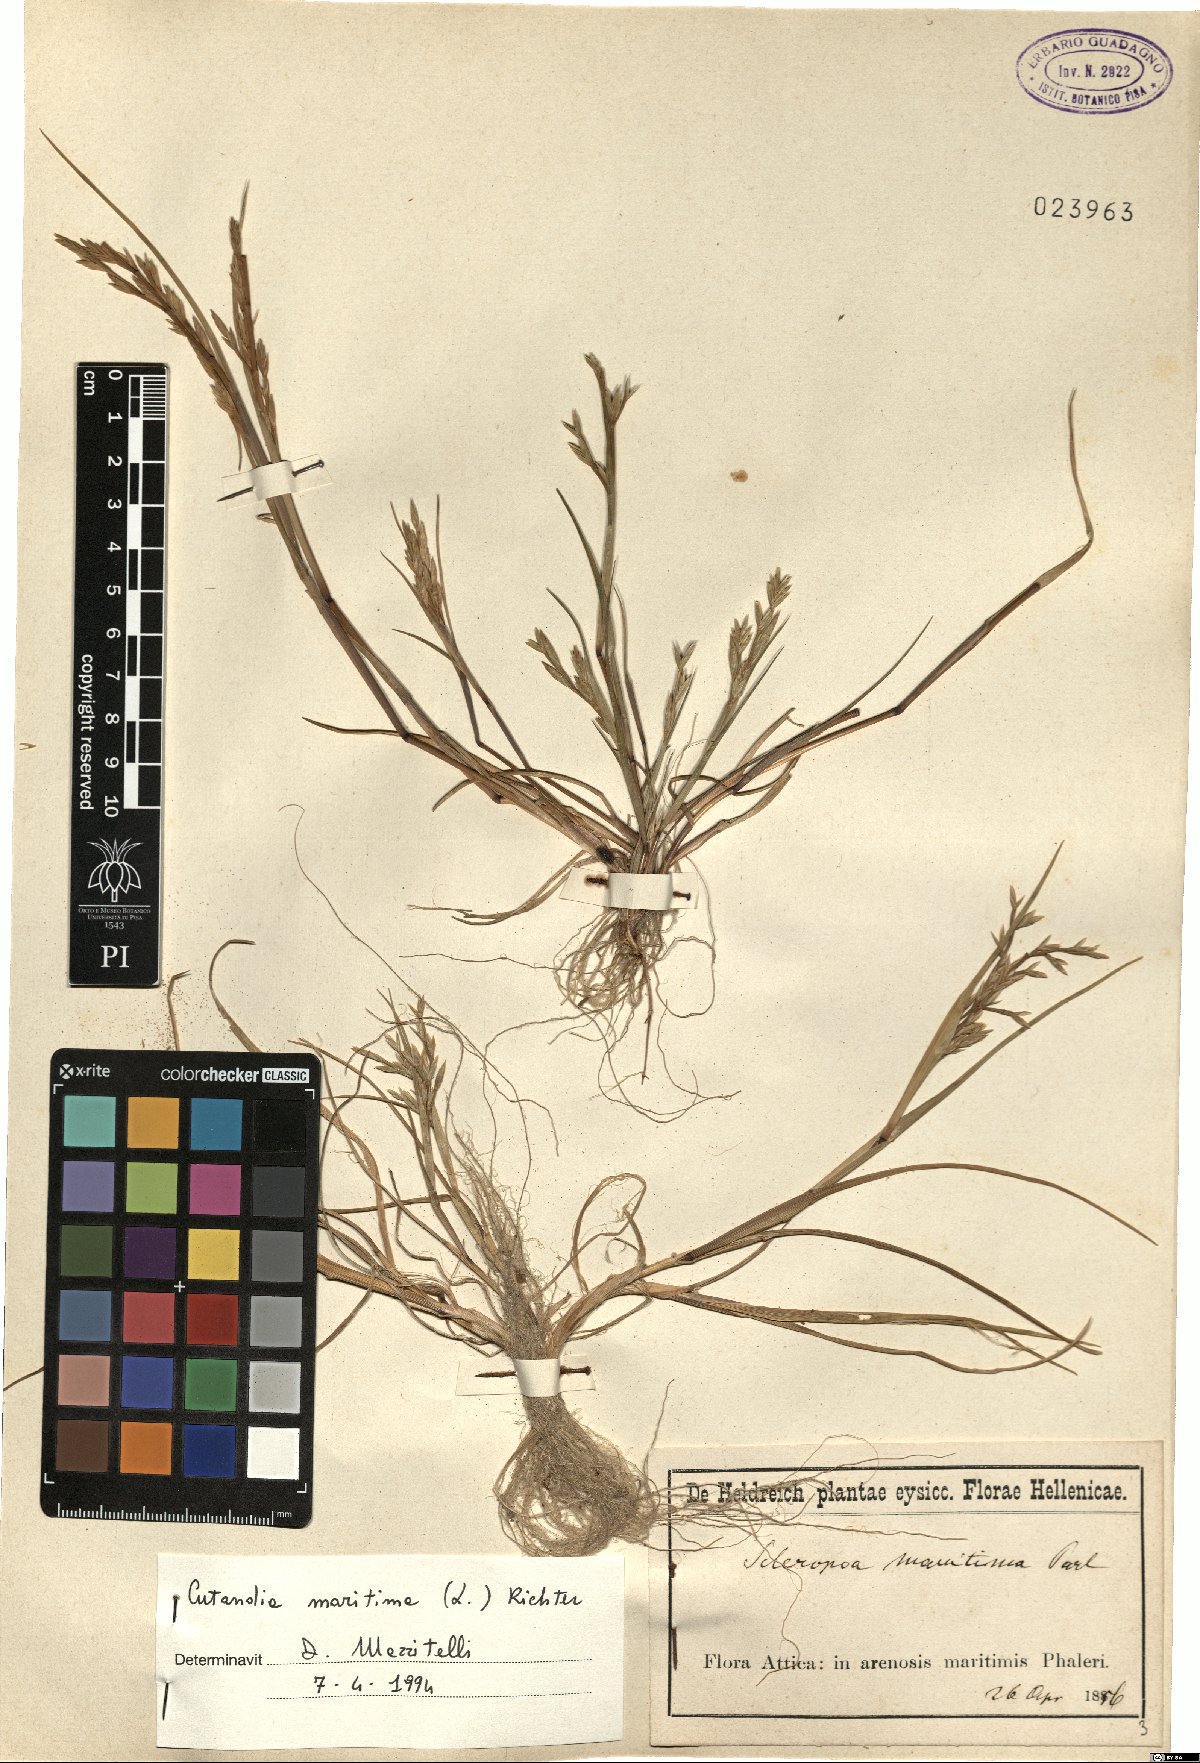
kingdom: Plantae
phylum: Tracheophyta
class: Liliopsida
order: Poales
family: Poaceae
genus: Cutandia
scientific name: Cutandia maritima
